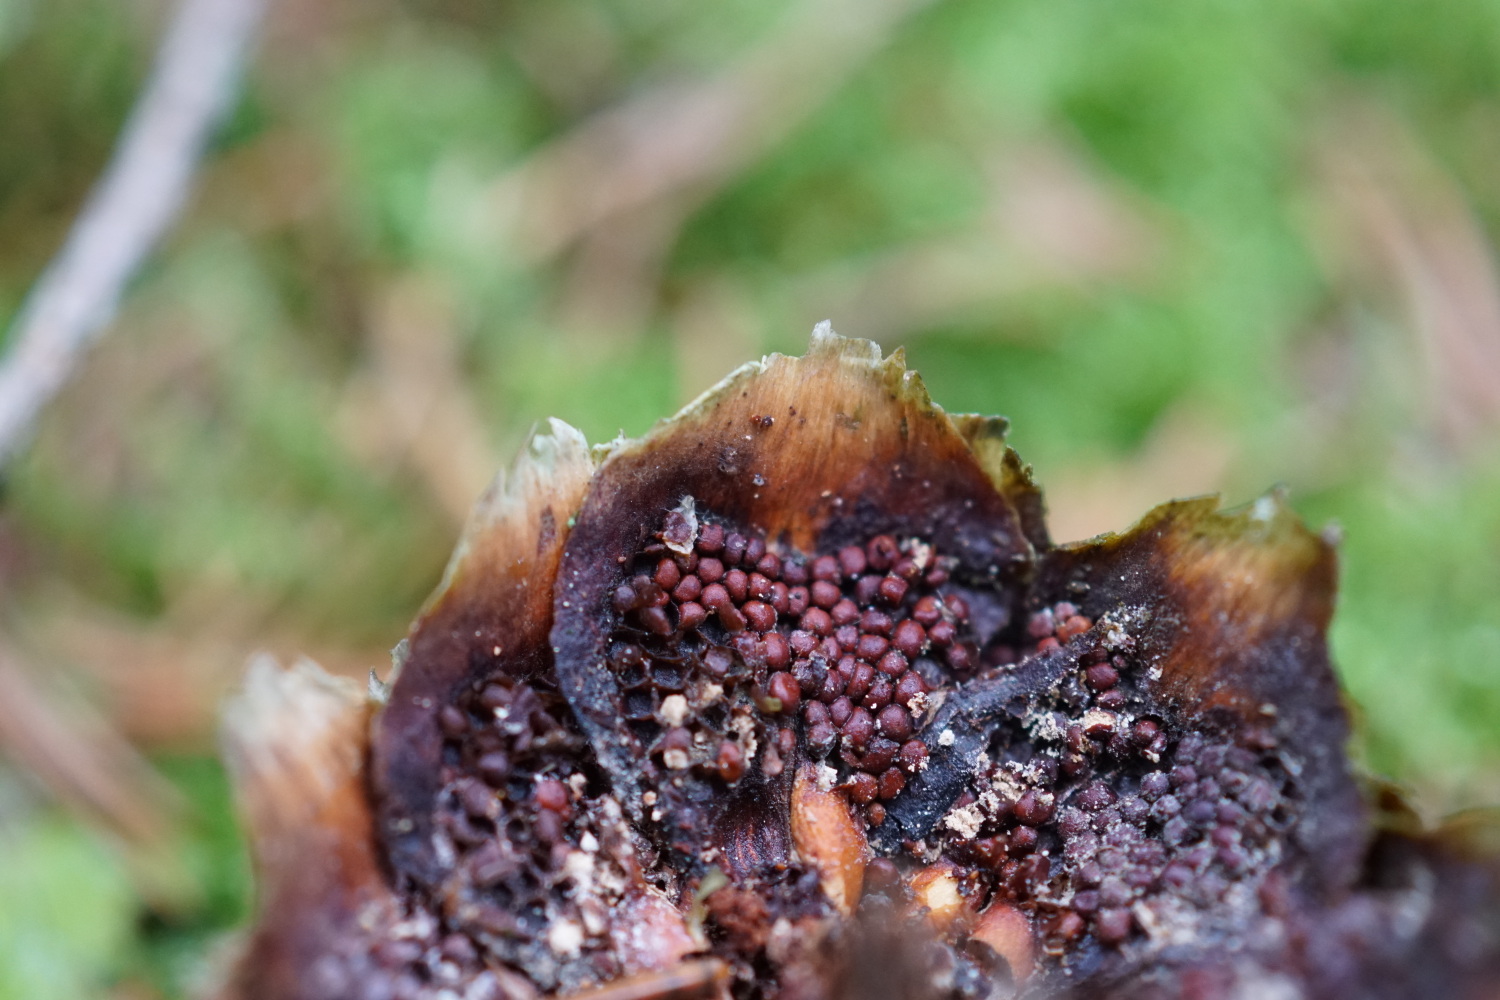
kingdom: Fungi
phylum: Basidiomycota
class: Pucciniomycetes
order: Pucciniales
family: Pucciniastraceae
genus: Thekopsora
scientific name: Thekopsora areolata
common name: grankogle-nålerust
